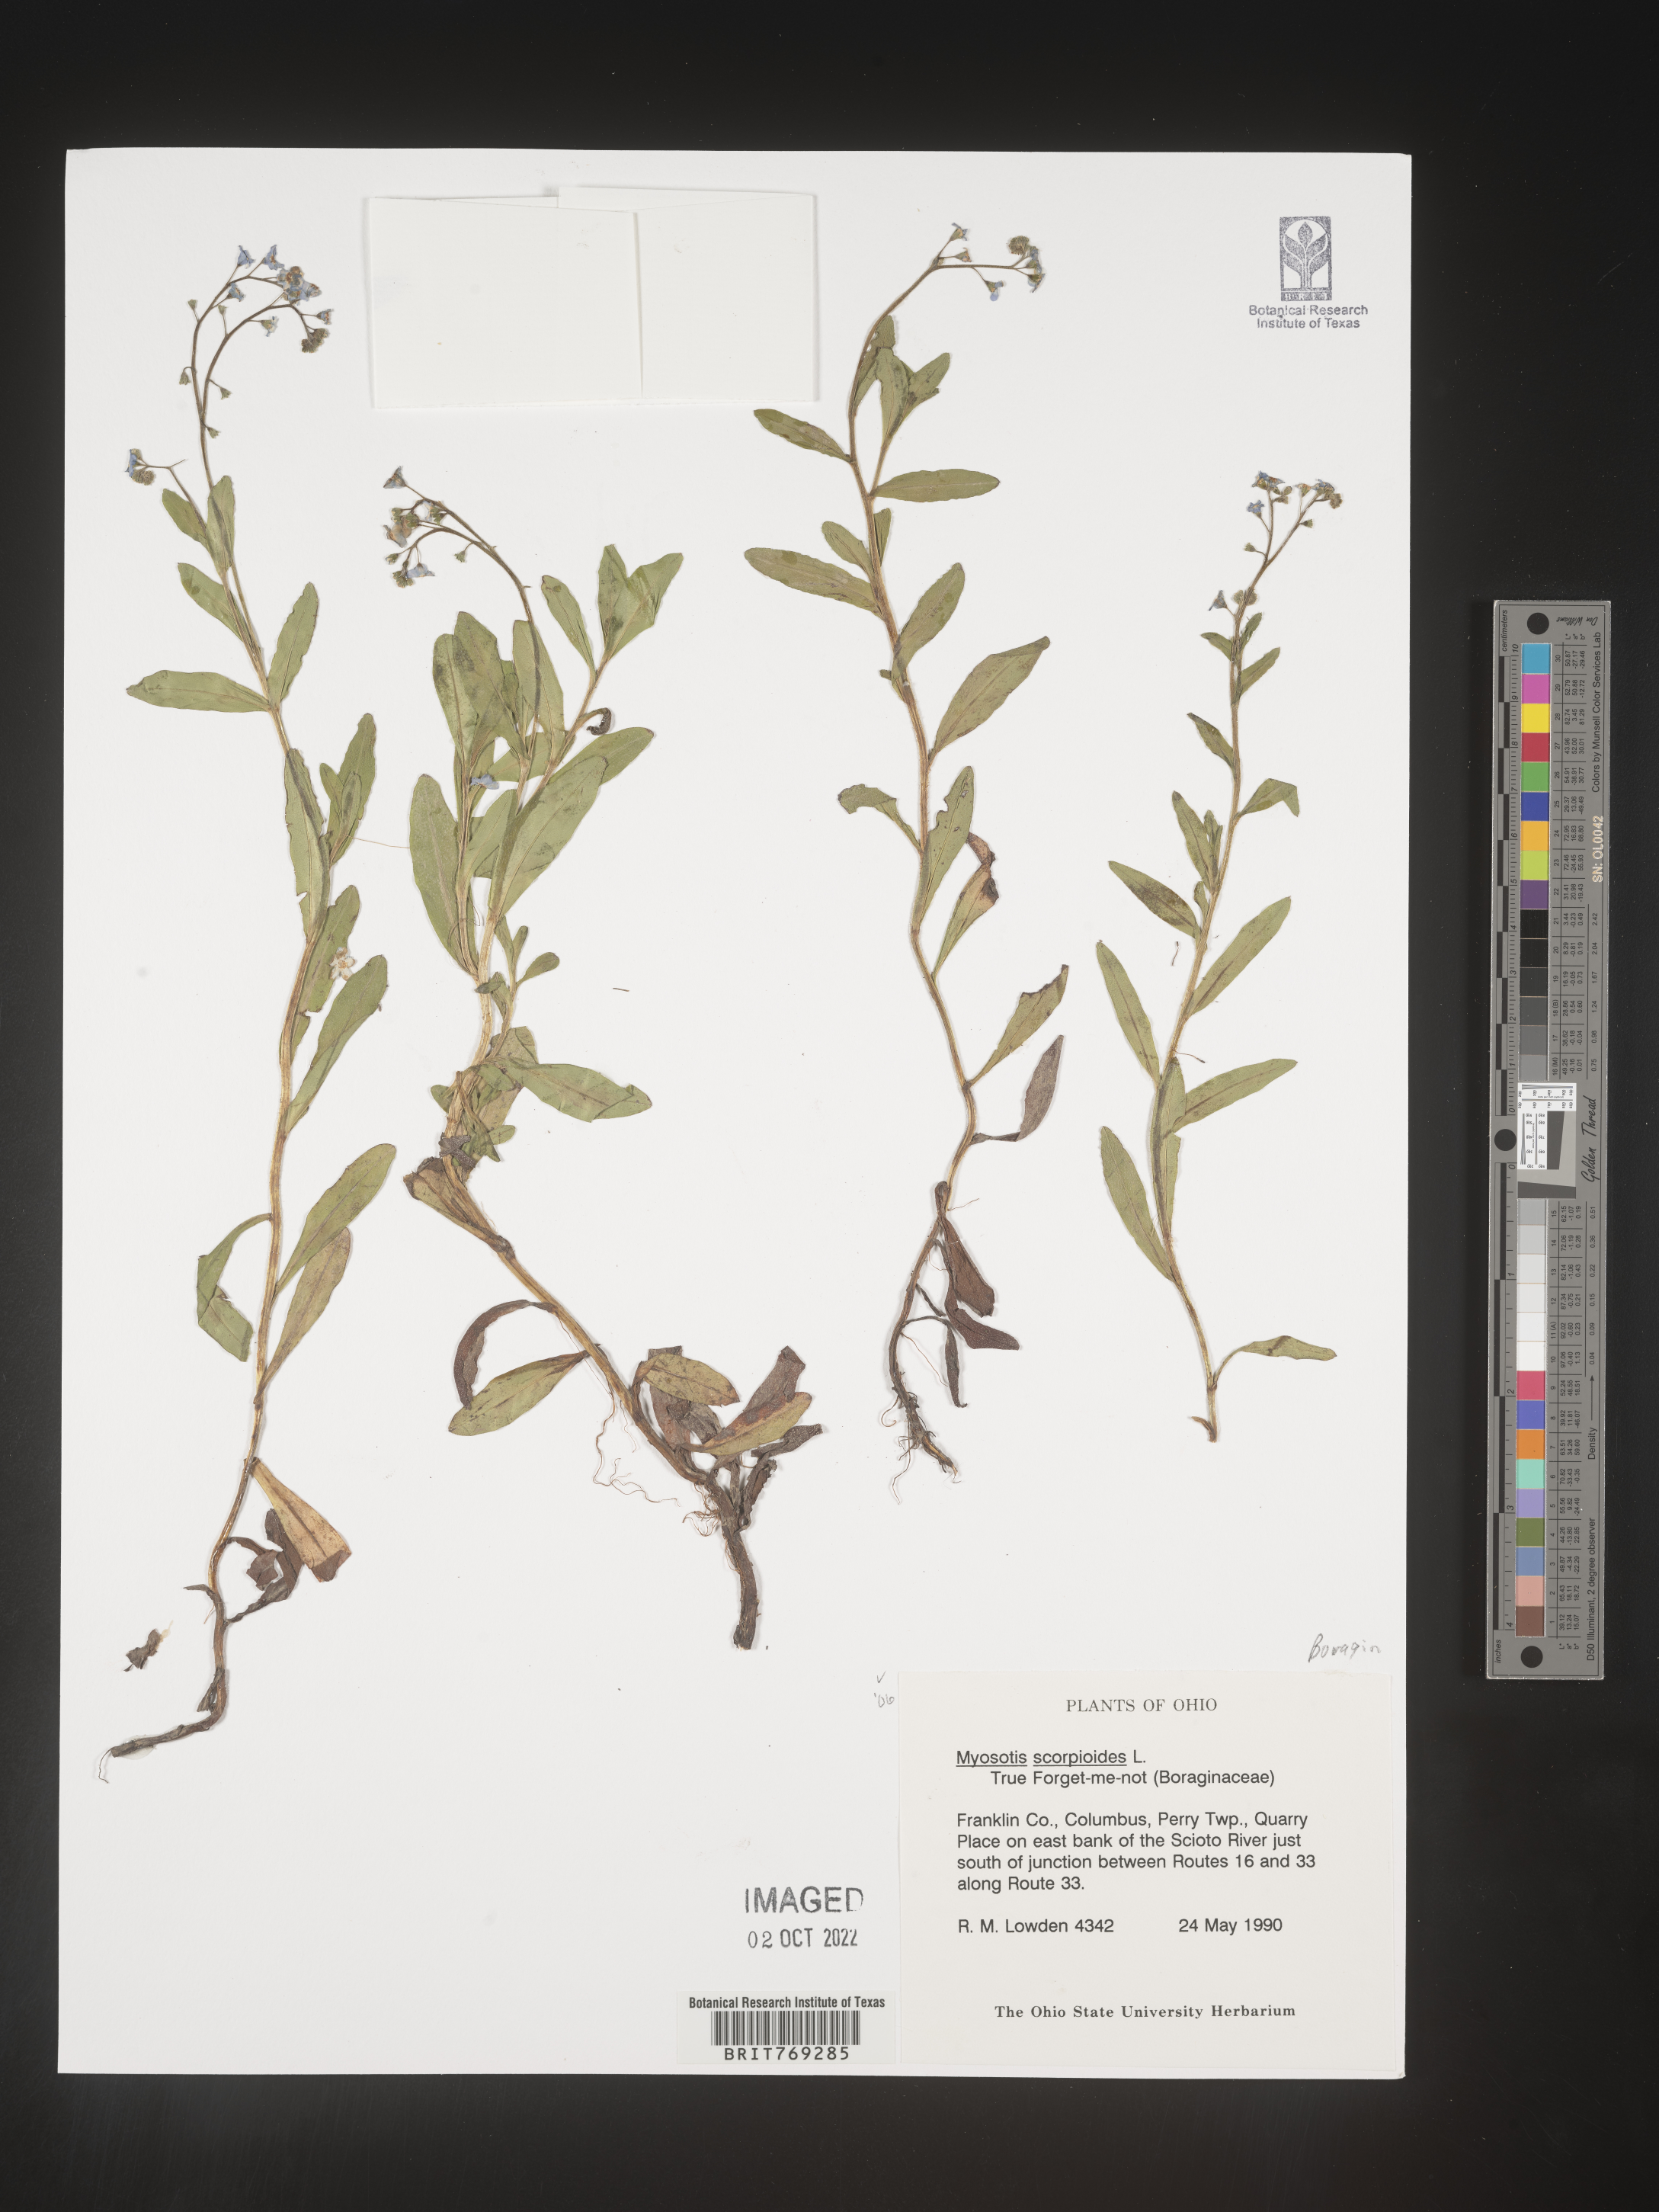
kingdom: Plantae
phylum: Tracheophyta
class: Magnoliopsida
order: Boraginales
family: Boraginaceae
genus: Myosotis
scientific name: Myosotis scorpioides
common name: Water forget-me-not
